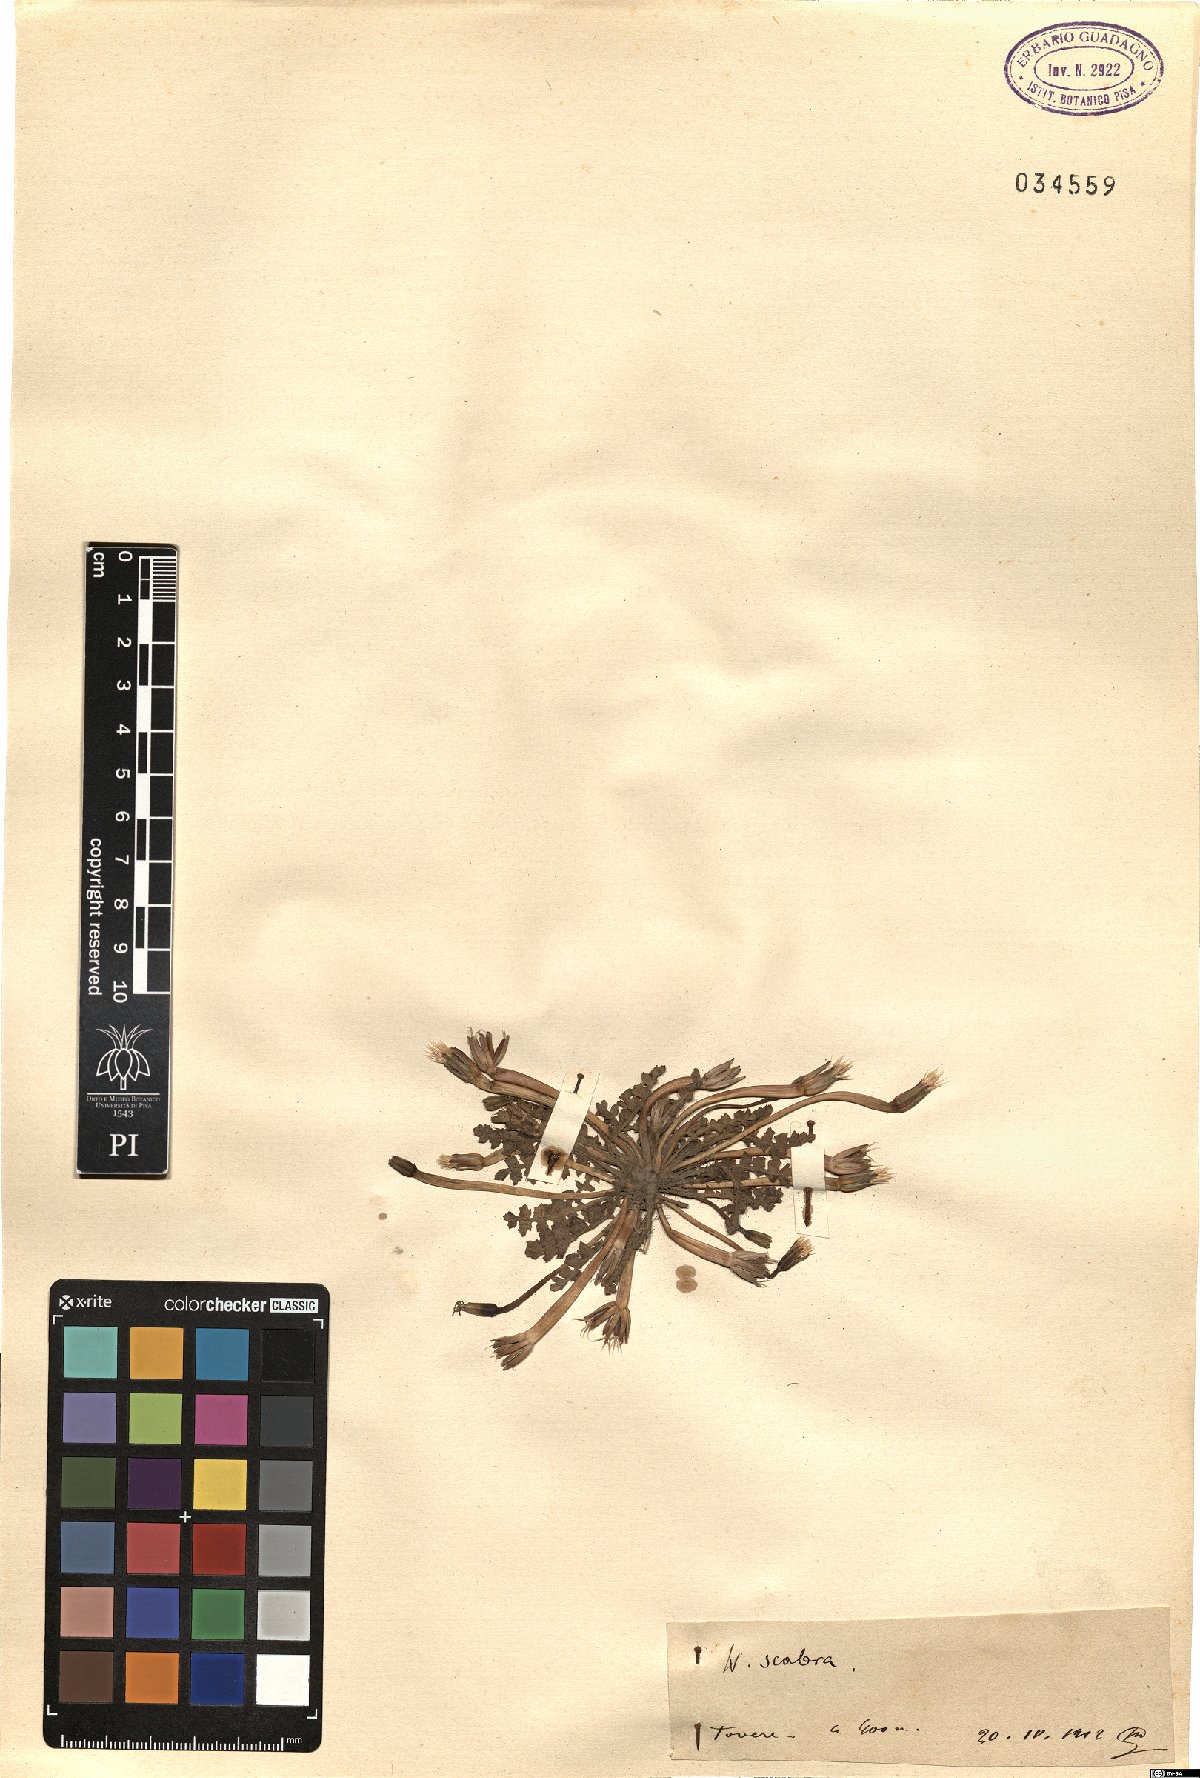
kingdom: Plantae
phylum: Tracheophyta
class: Magnoliopsida
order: Asterales
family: Asteraceae
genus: Hyoseris
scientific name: Hyoseris scabra
